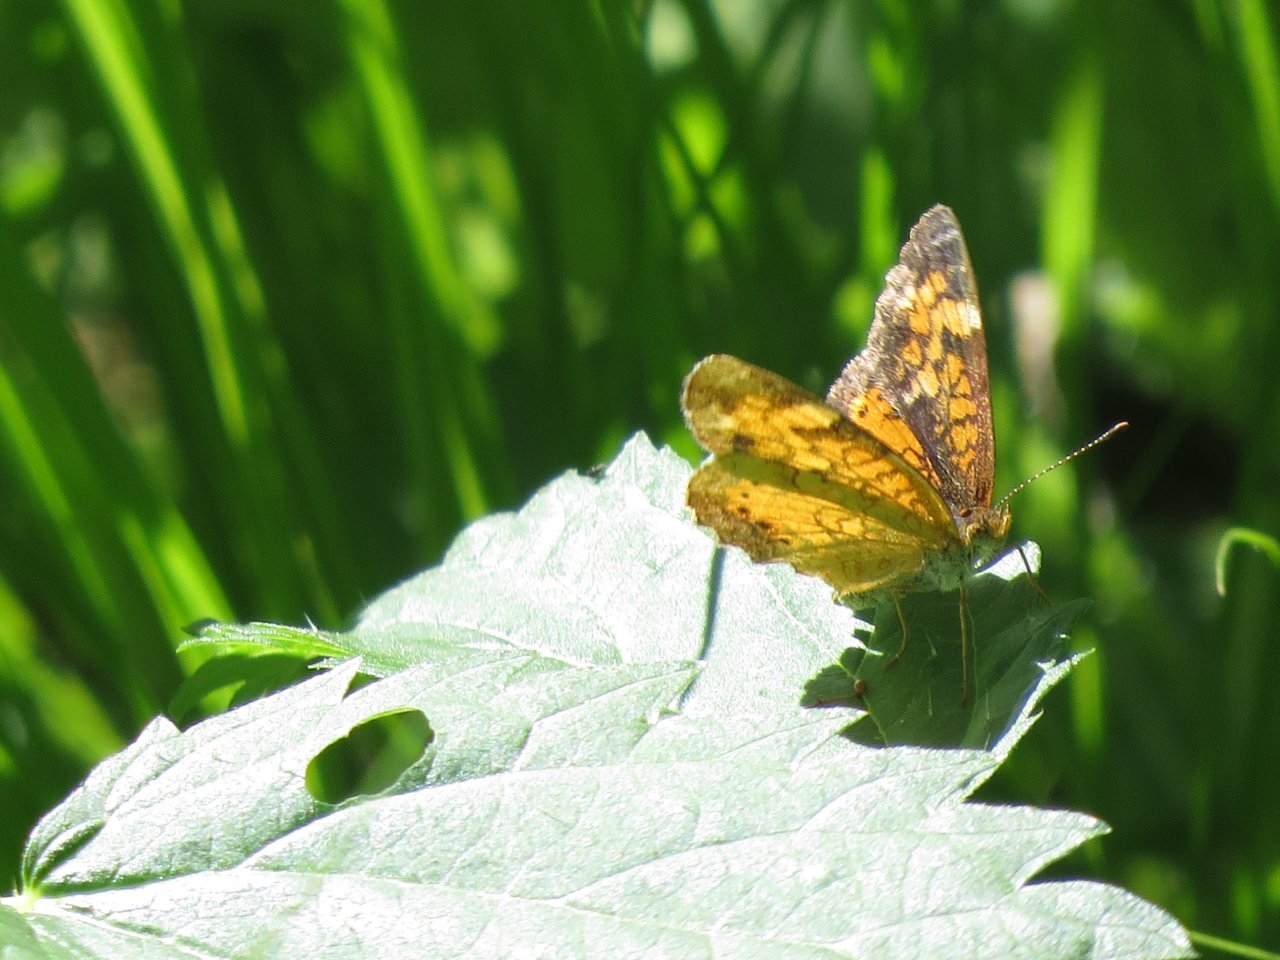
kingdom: Animalia
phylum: Arthropoda
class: Insecta
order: Lepidoptera
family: Nymphalidae
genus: Phyciodes
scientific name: Phyciodes tharos
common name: Northern Crescent
